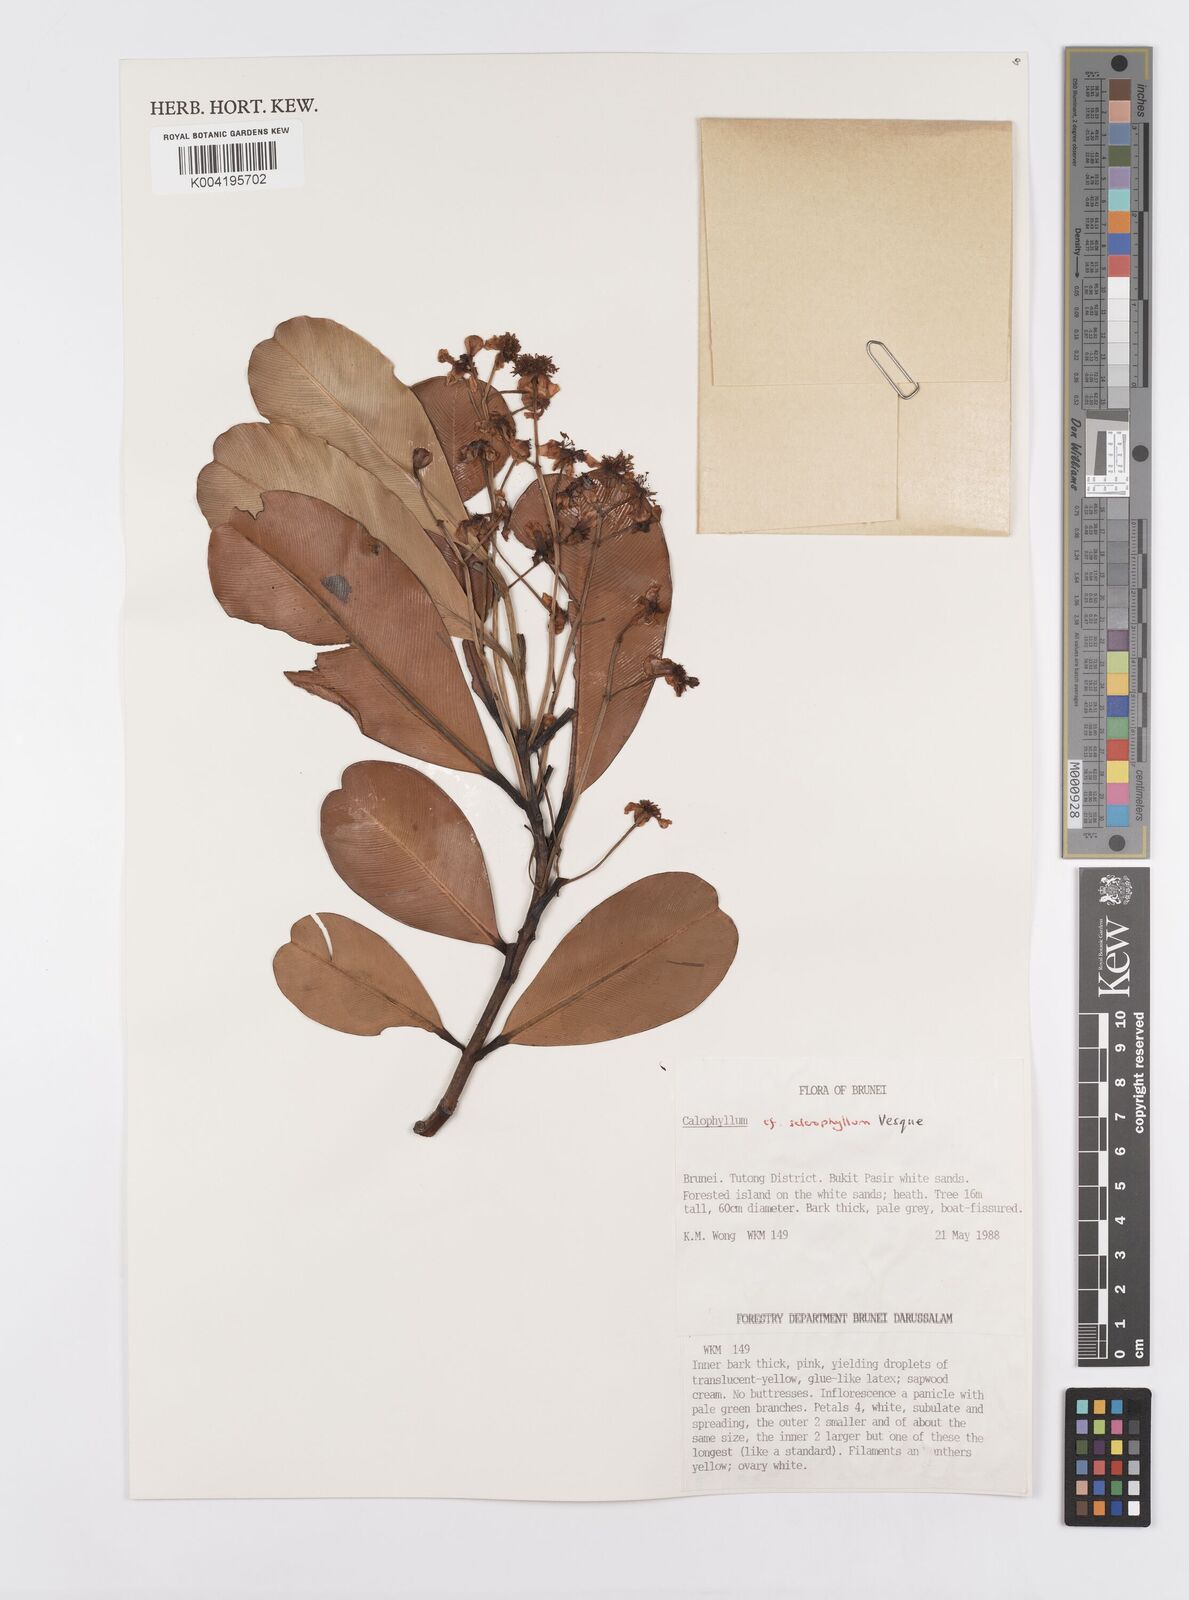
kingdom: Plantae
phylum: Tracheophyta
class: Magnoliopsida
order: Malpighiales
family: Calophyllaceae
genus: Calophyllum
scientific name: Calophyllum sclerophyllum
